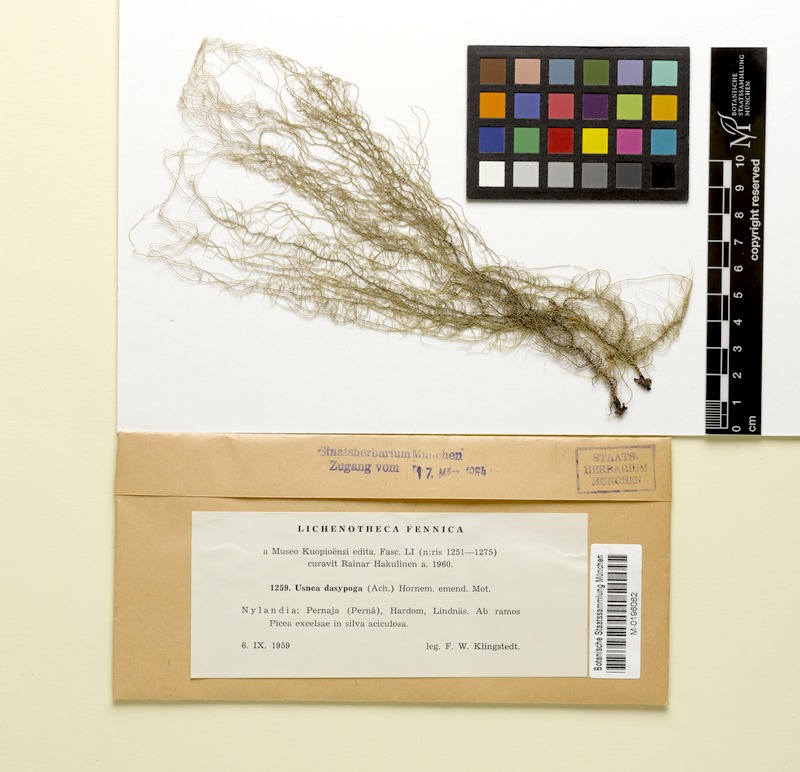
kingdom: Fungi
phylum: Ascomycota
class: Lecanoromycetes
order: Lecanorales
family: Parmeliaceae
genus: Usnea
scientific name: Usnea dasopoga
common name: Fishbone beard lichen
